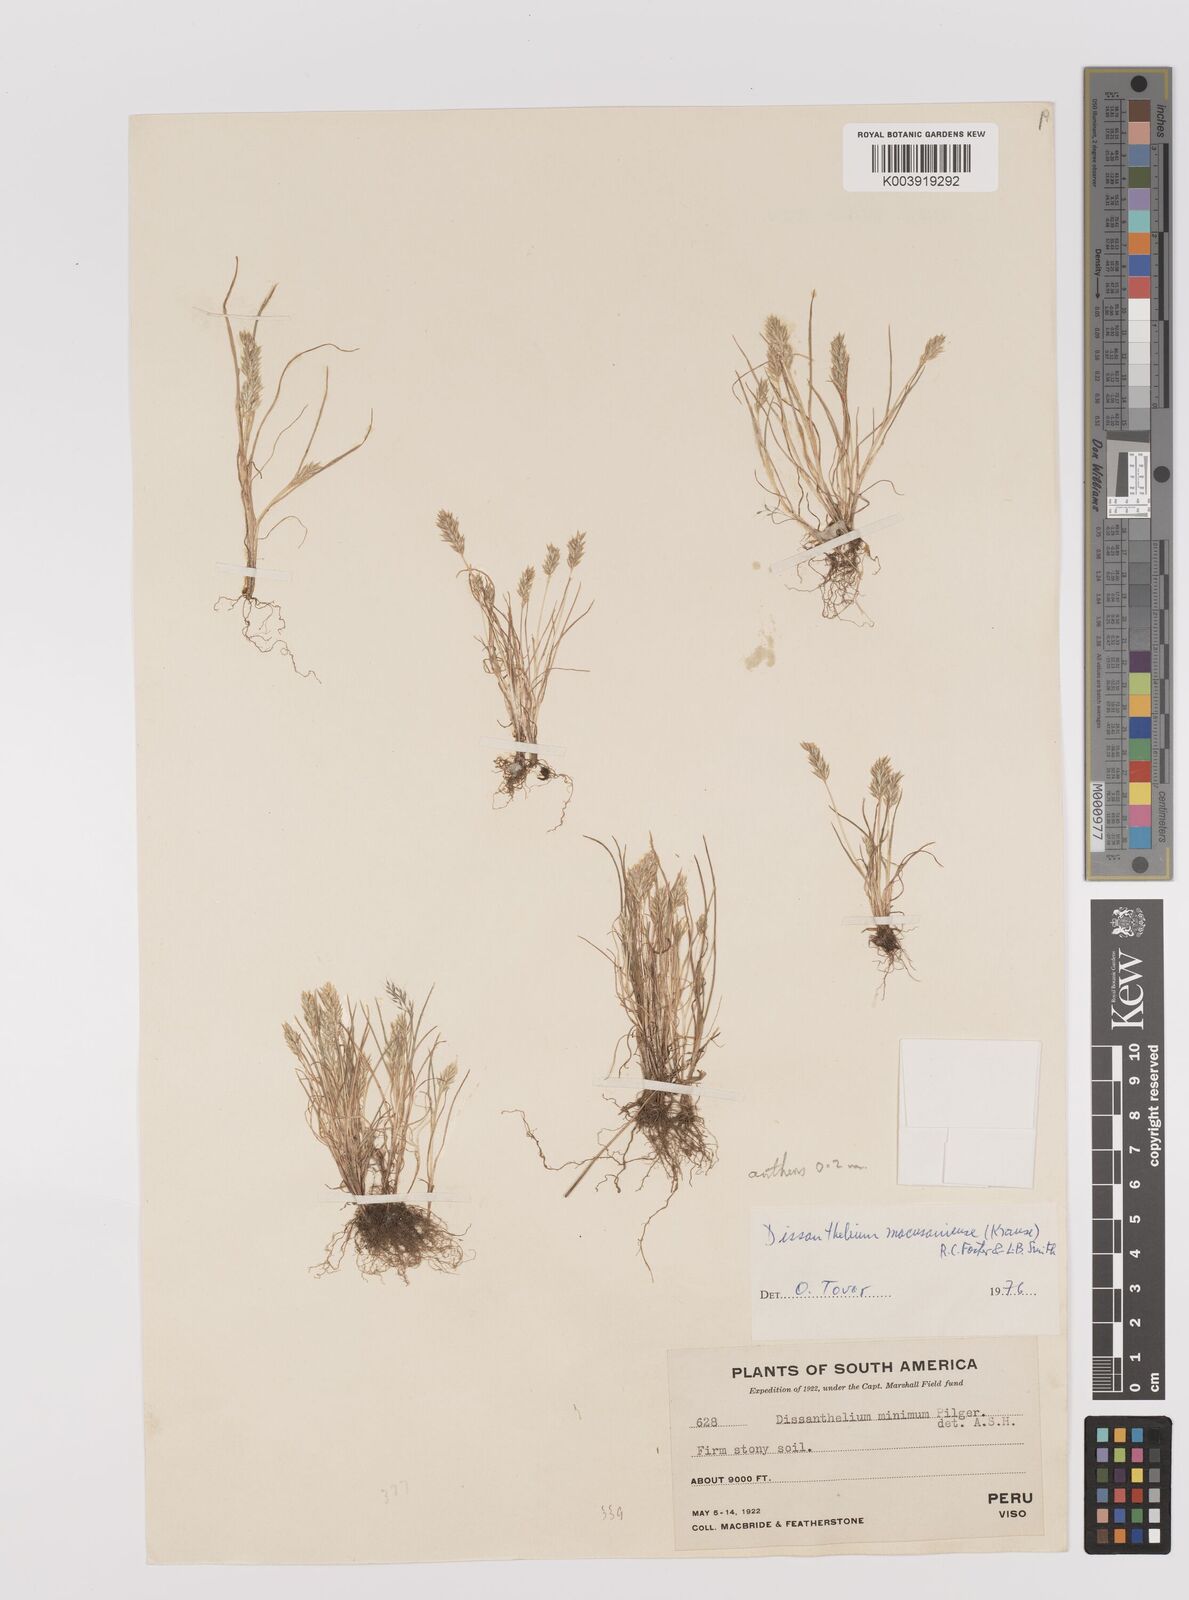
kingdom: Plantae
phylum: Tracheophyta
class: Liliopsida
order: Poales
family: Poaceae
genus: Poa
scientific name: Poa macusaniensis
